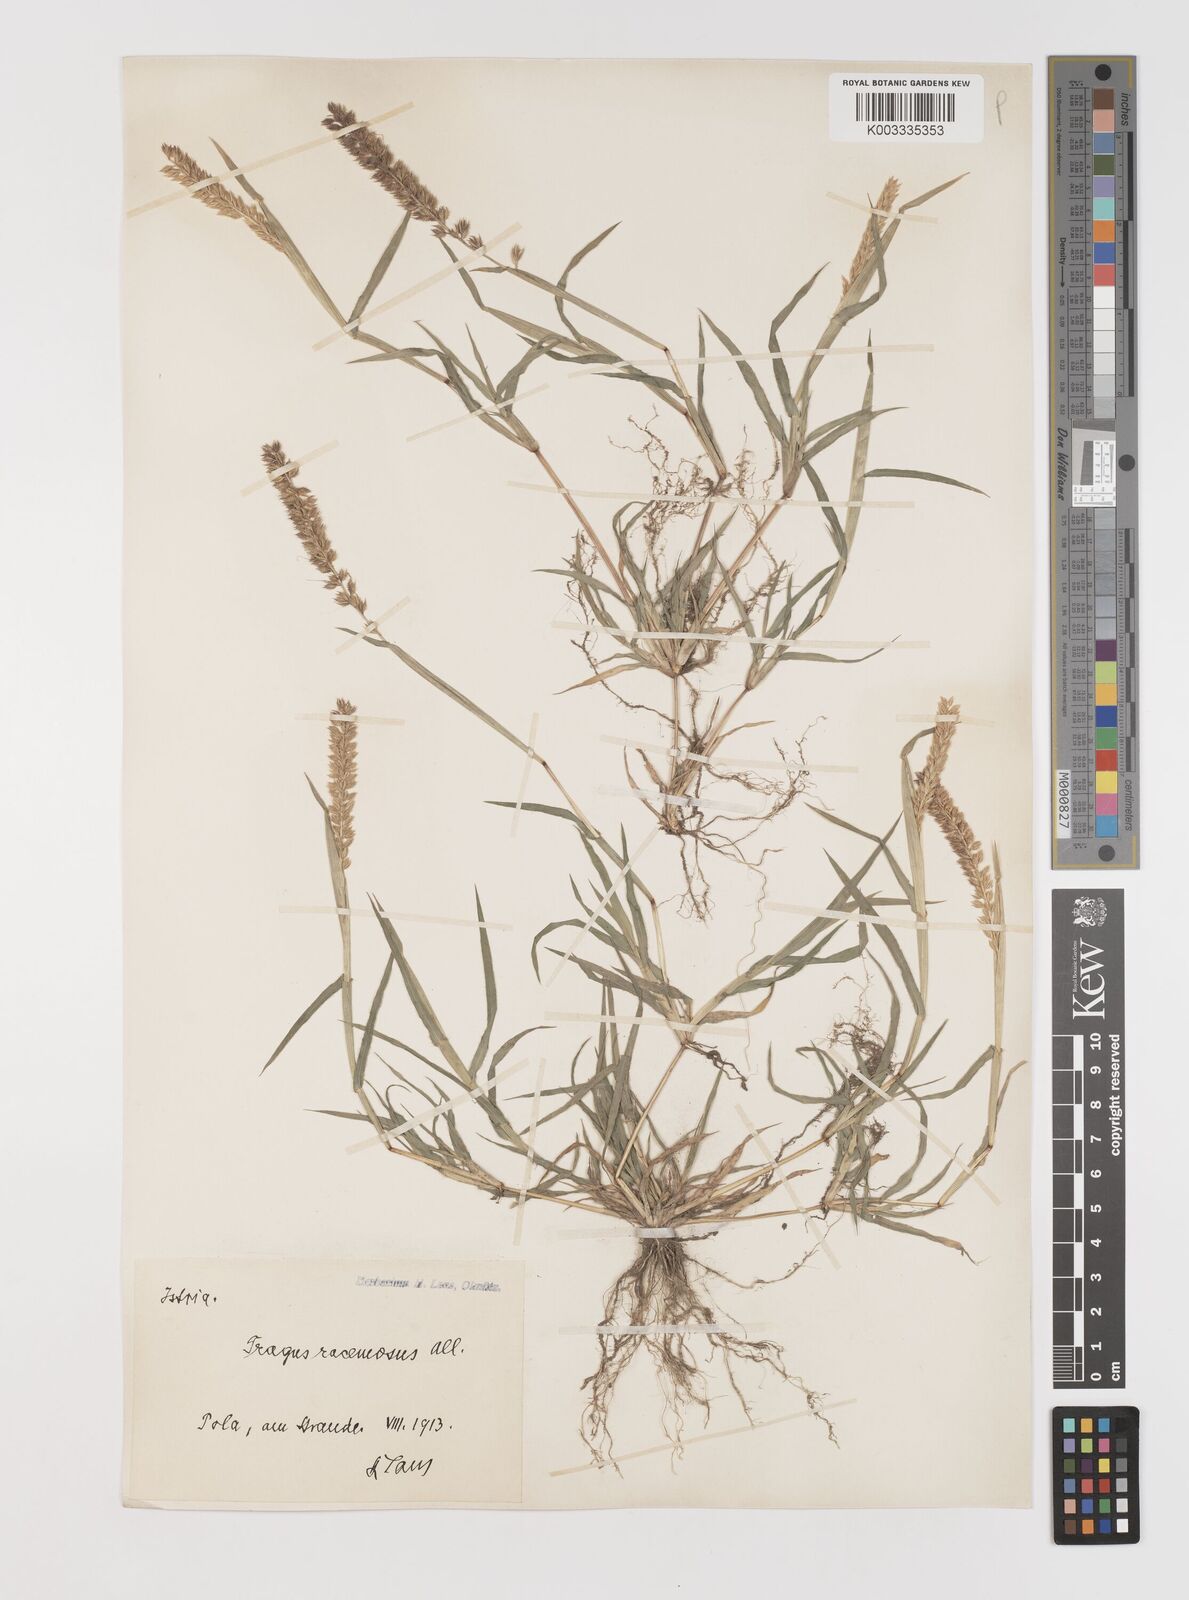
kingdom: Plantae
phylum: Tracheophyta
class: Liliopsida
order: Poales
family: Poaceae
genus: Tragus
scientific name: Tragus racemosus
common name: European bur-grass
